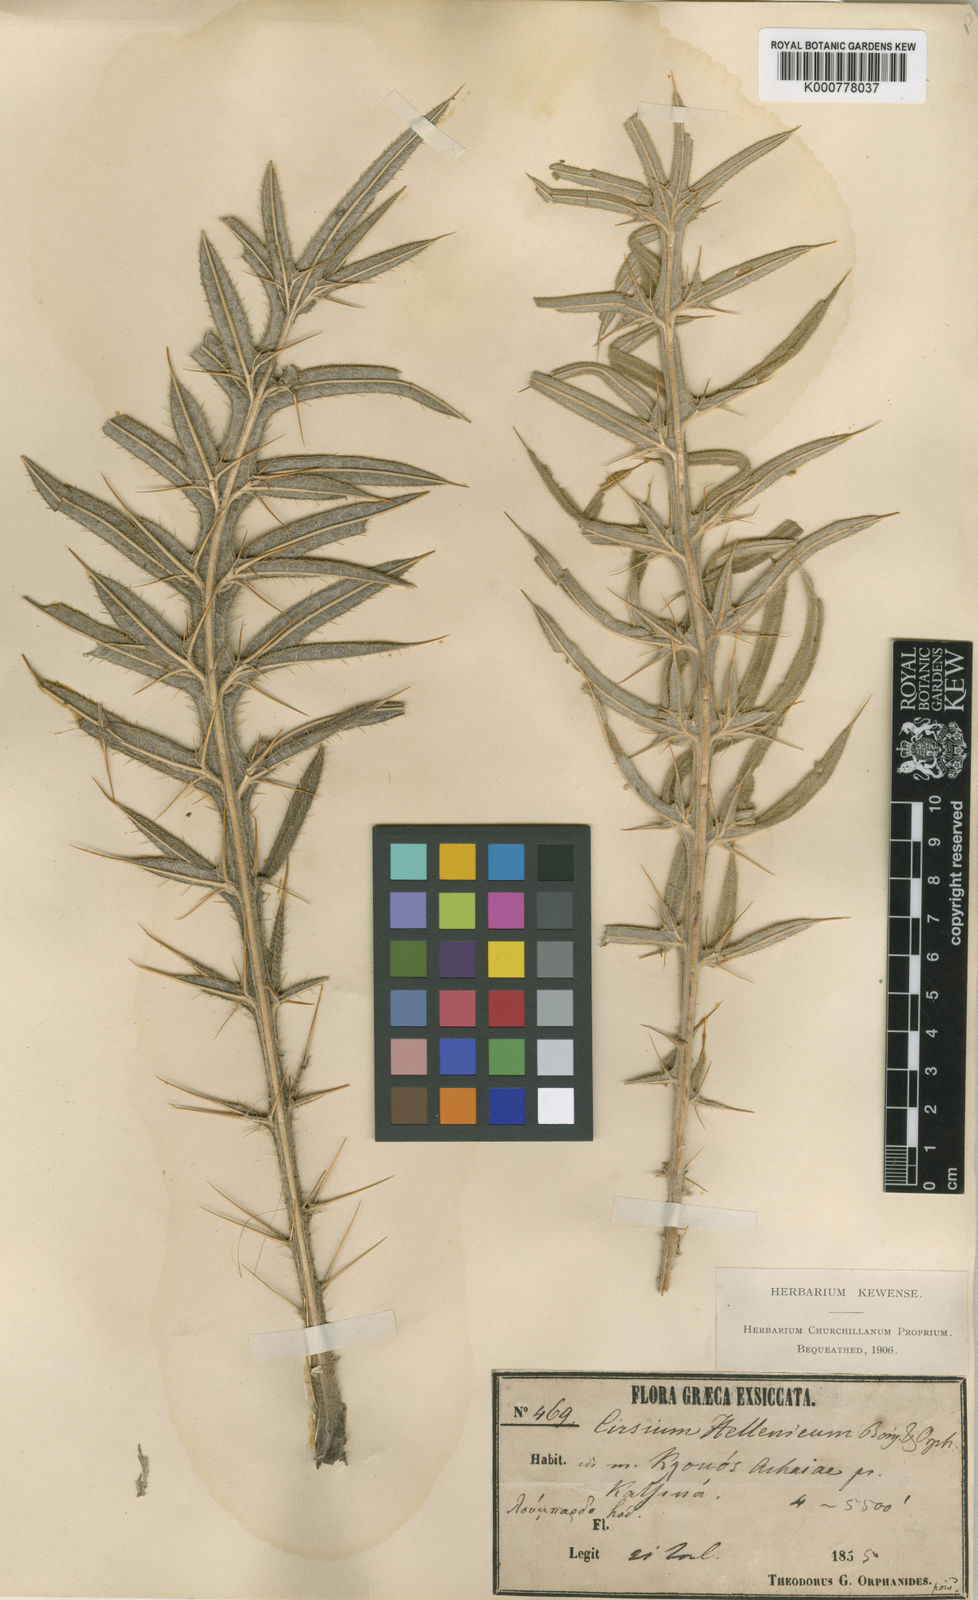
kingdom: Plantae
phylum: Tracheophyta
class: Magnoliopsida
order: Asterales
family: Asteraceae
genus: Lophiolepis
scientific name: Lophiolepis lobelii
